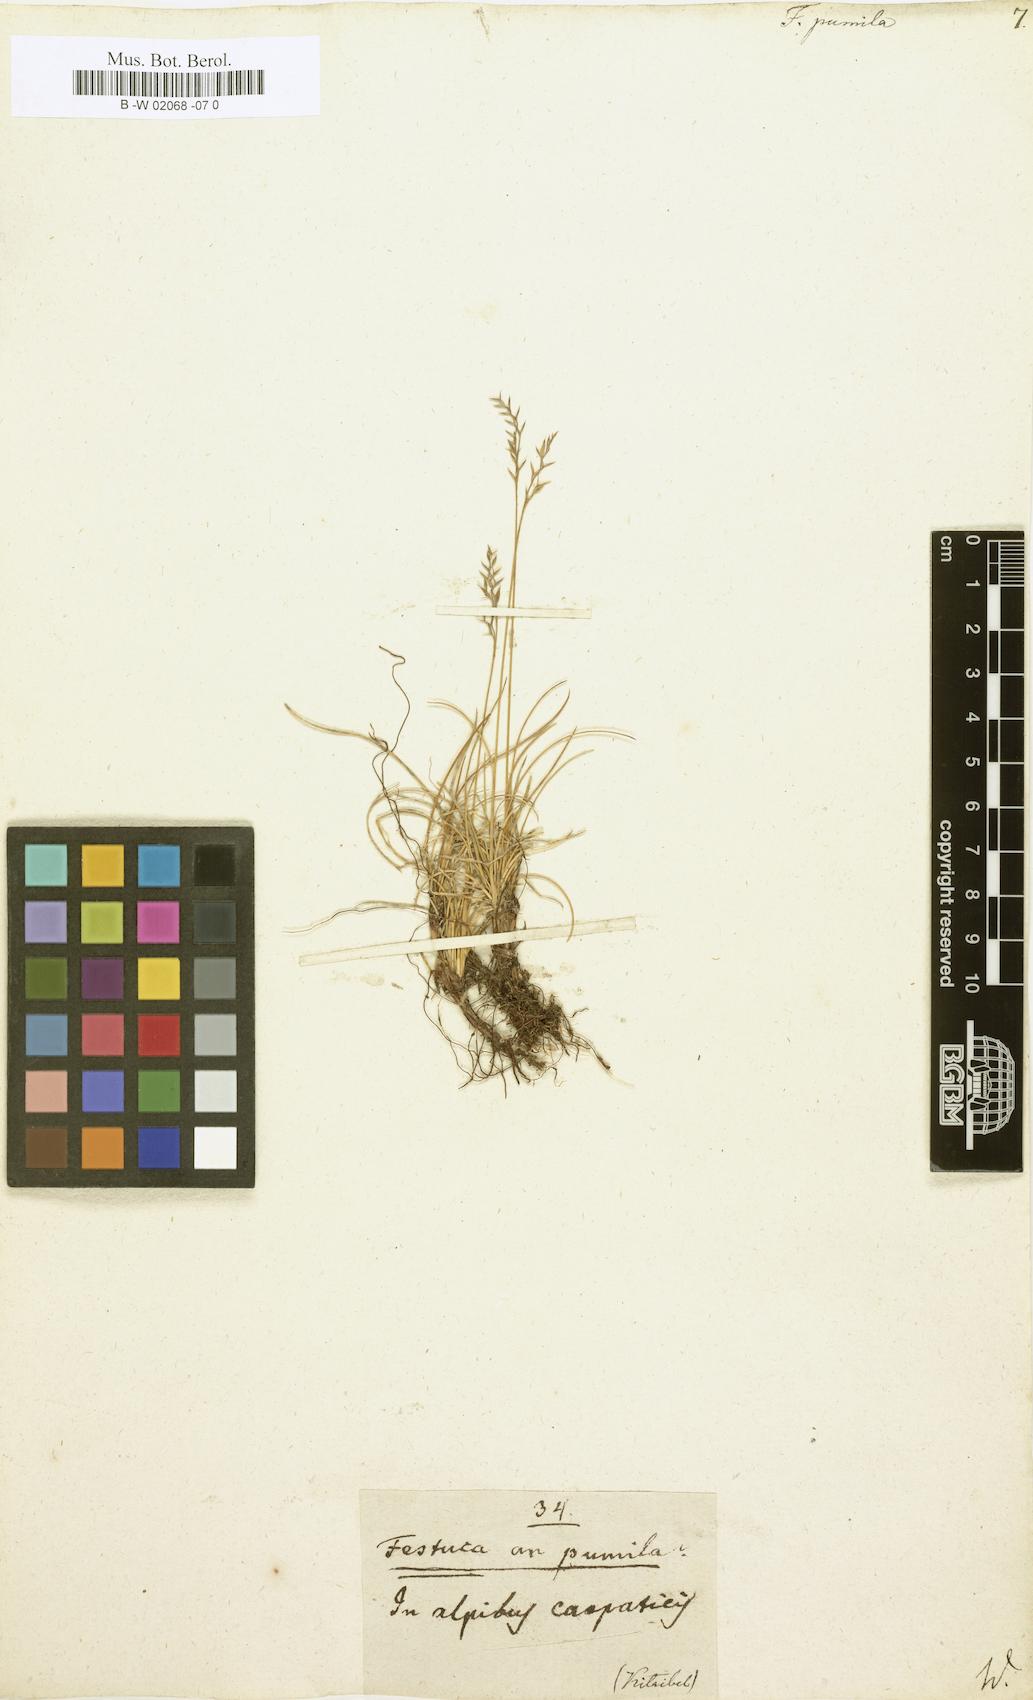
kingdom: Plantae
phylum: Tracheophyta
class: Liliopsida
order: Poales
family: Poaceae
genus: Festuca
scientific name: Festuca
